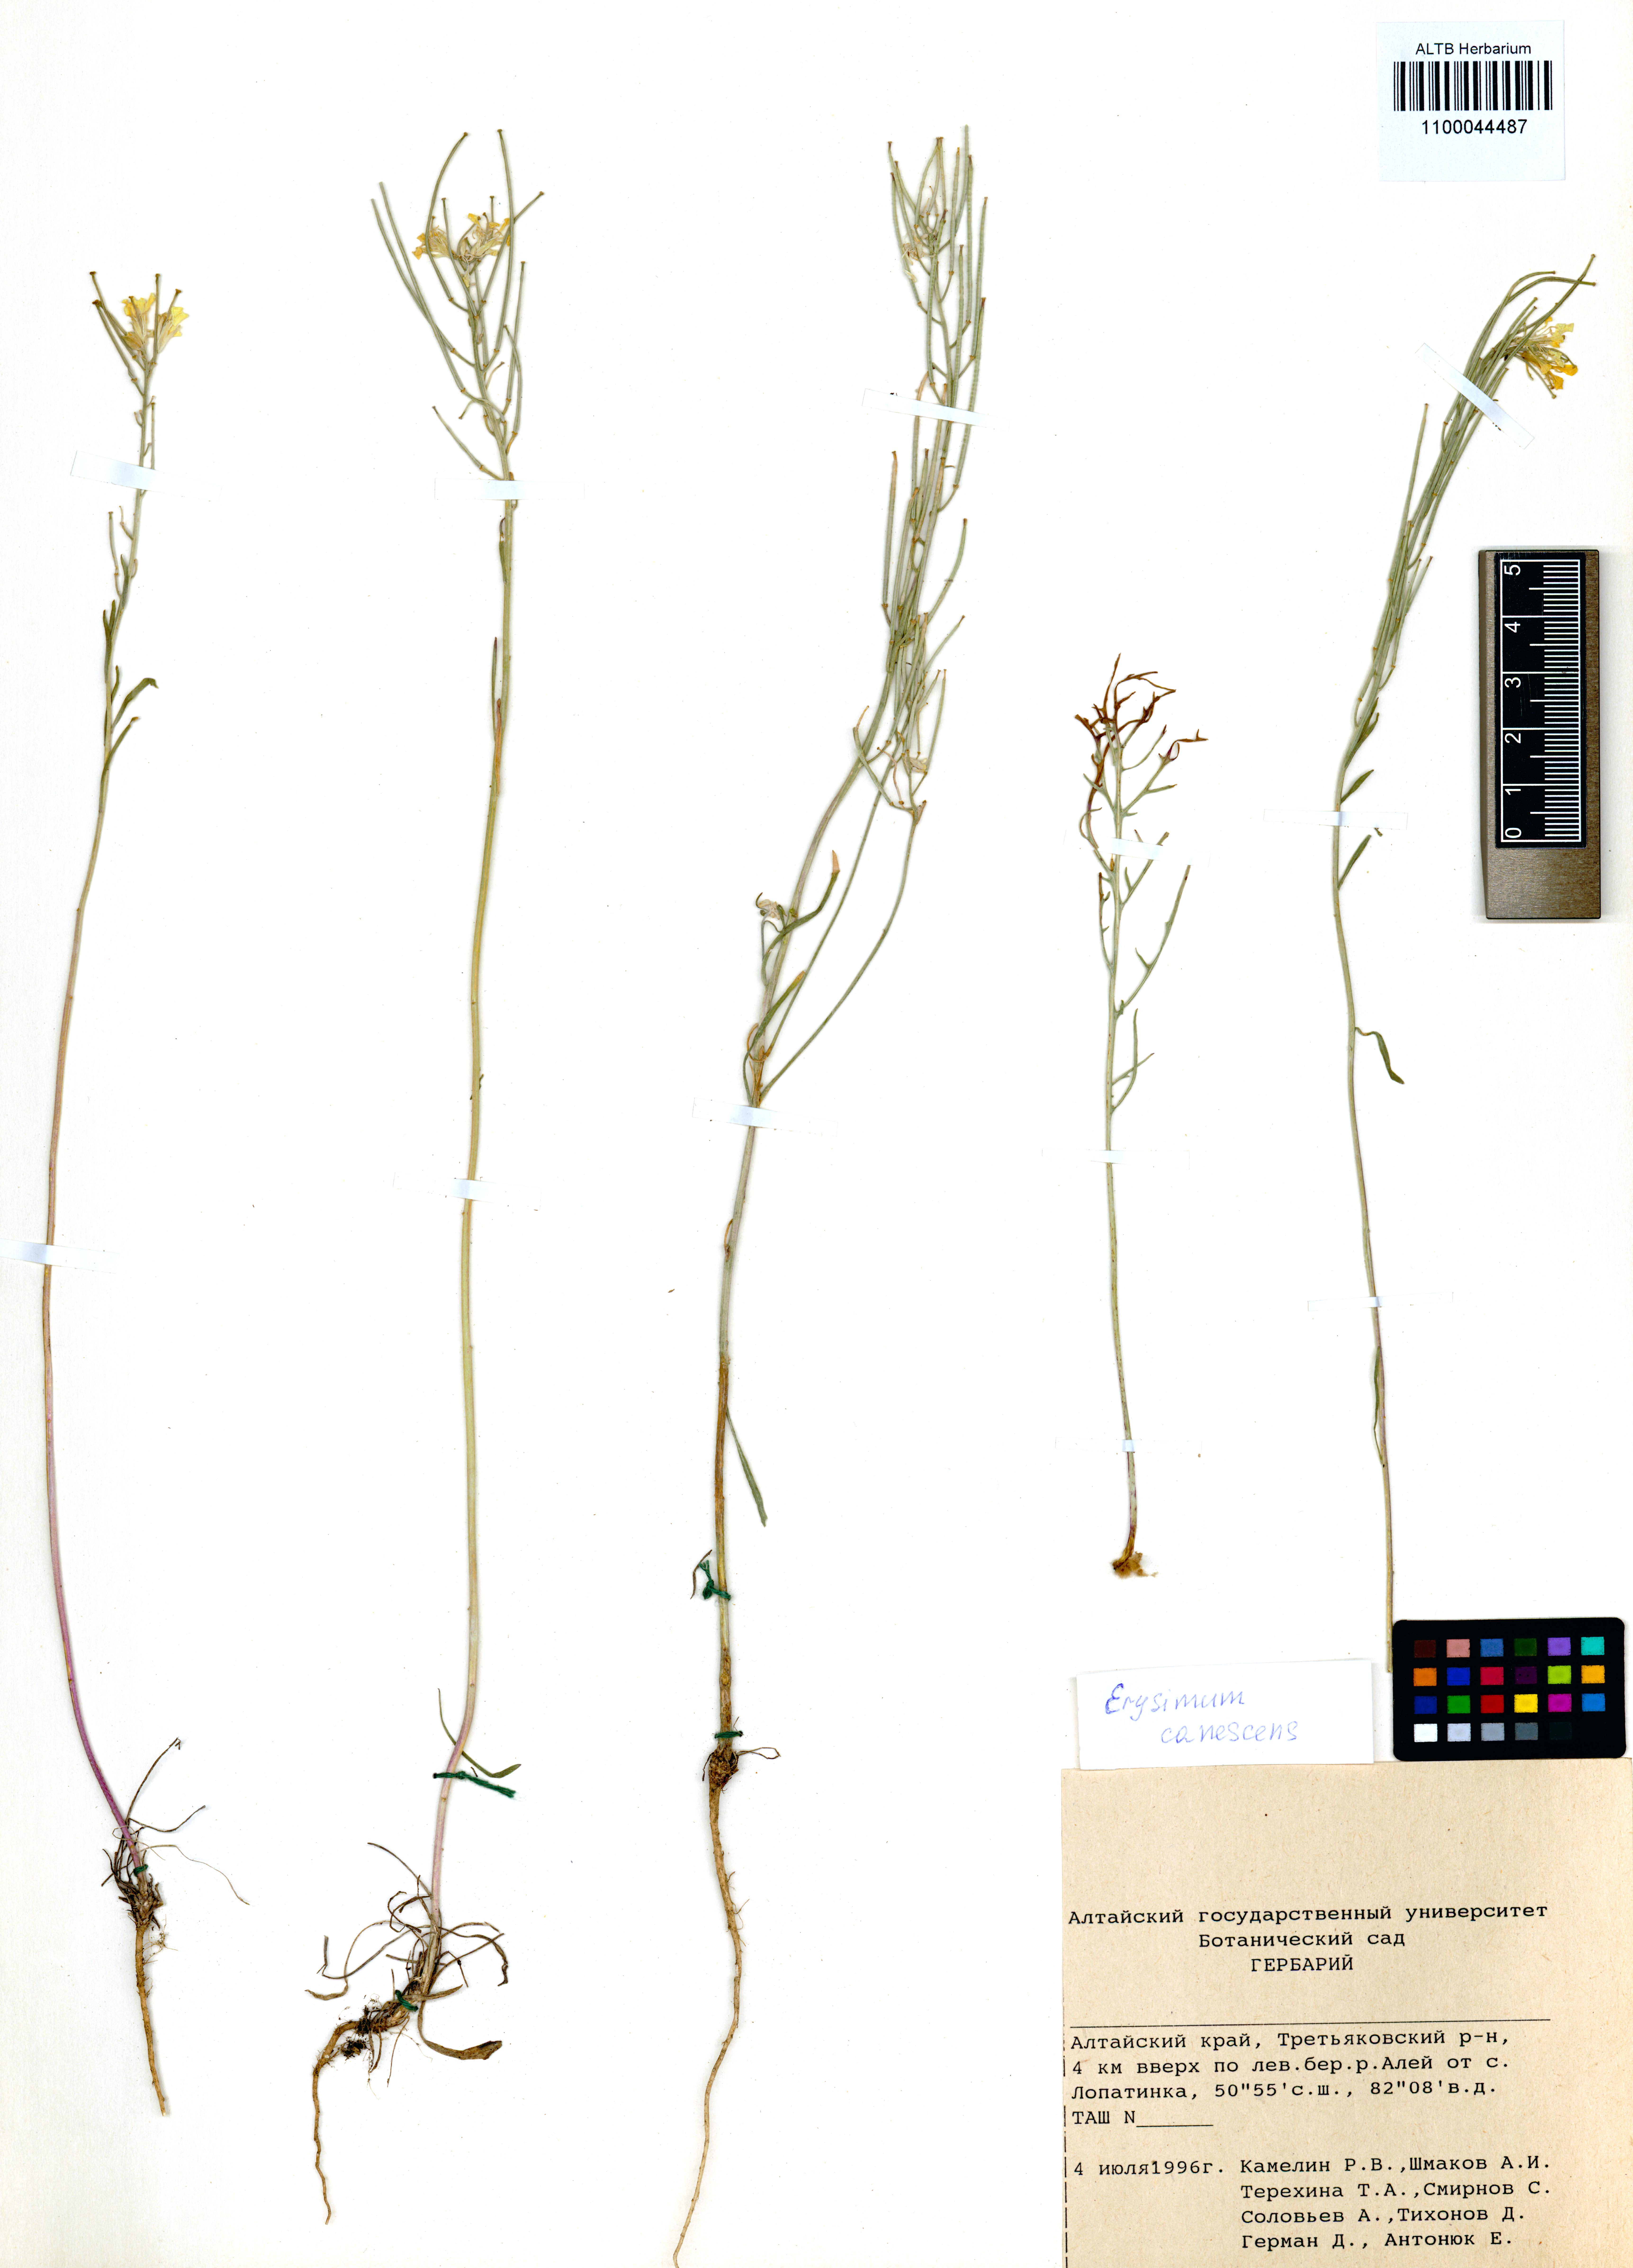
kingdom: Plantae
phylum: Tracheophyta
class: Magnoliopsida
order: Brassicales
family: Brassicaceae
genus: Erysimum
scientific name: Erysimum canescens
